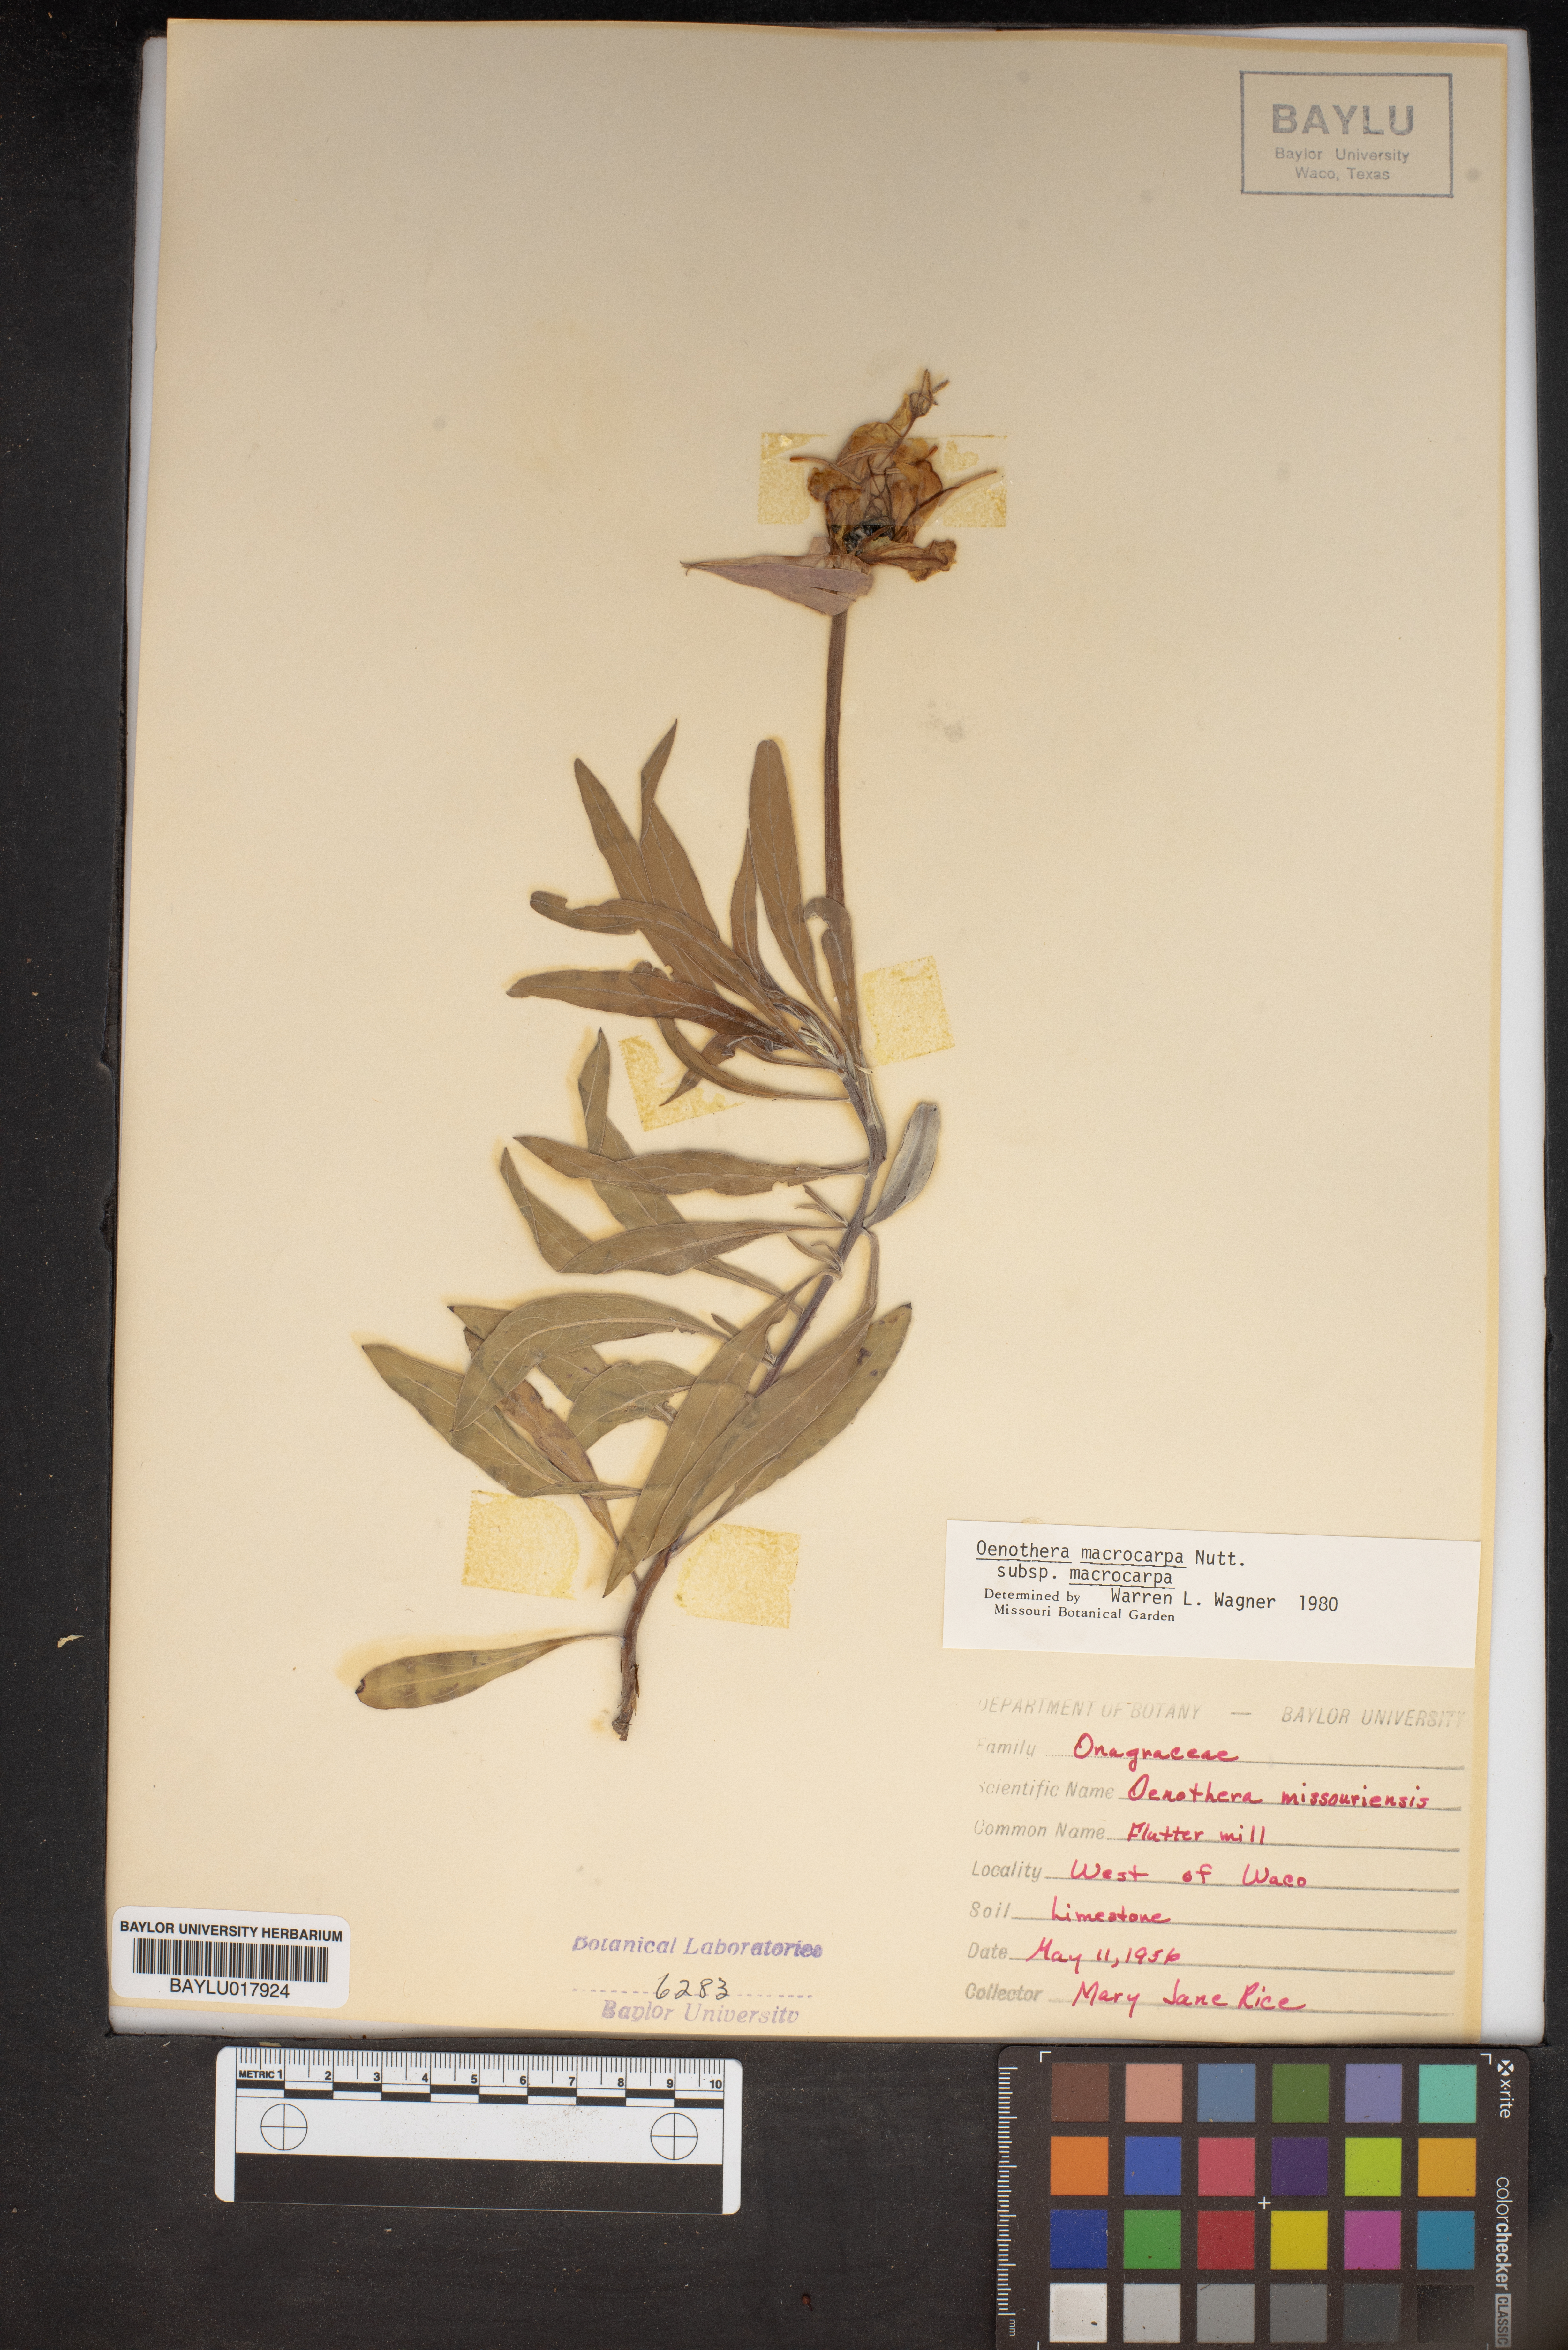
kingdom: Plantae
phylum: Tracheophyta
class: Magnoliopsida
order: Myrtales
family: Onagraceae
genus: Oenothera
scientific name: Oenothera macrocarpa
